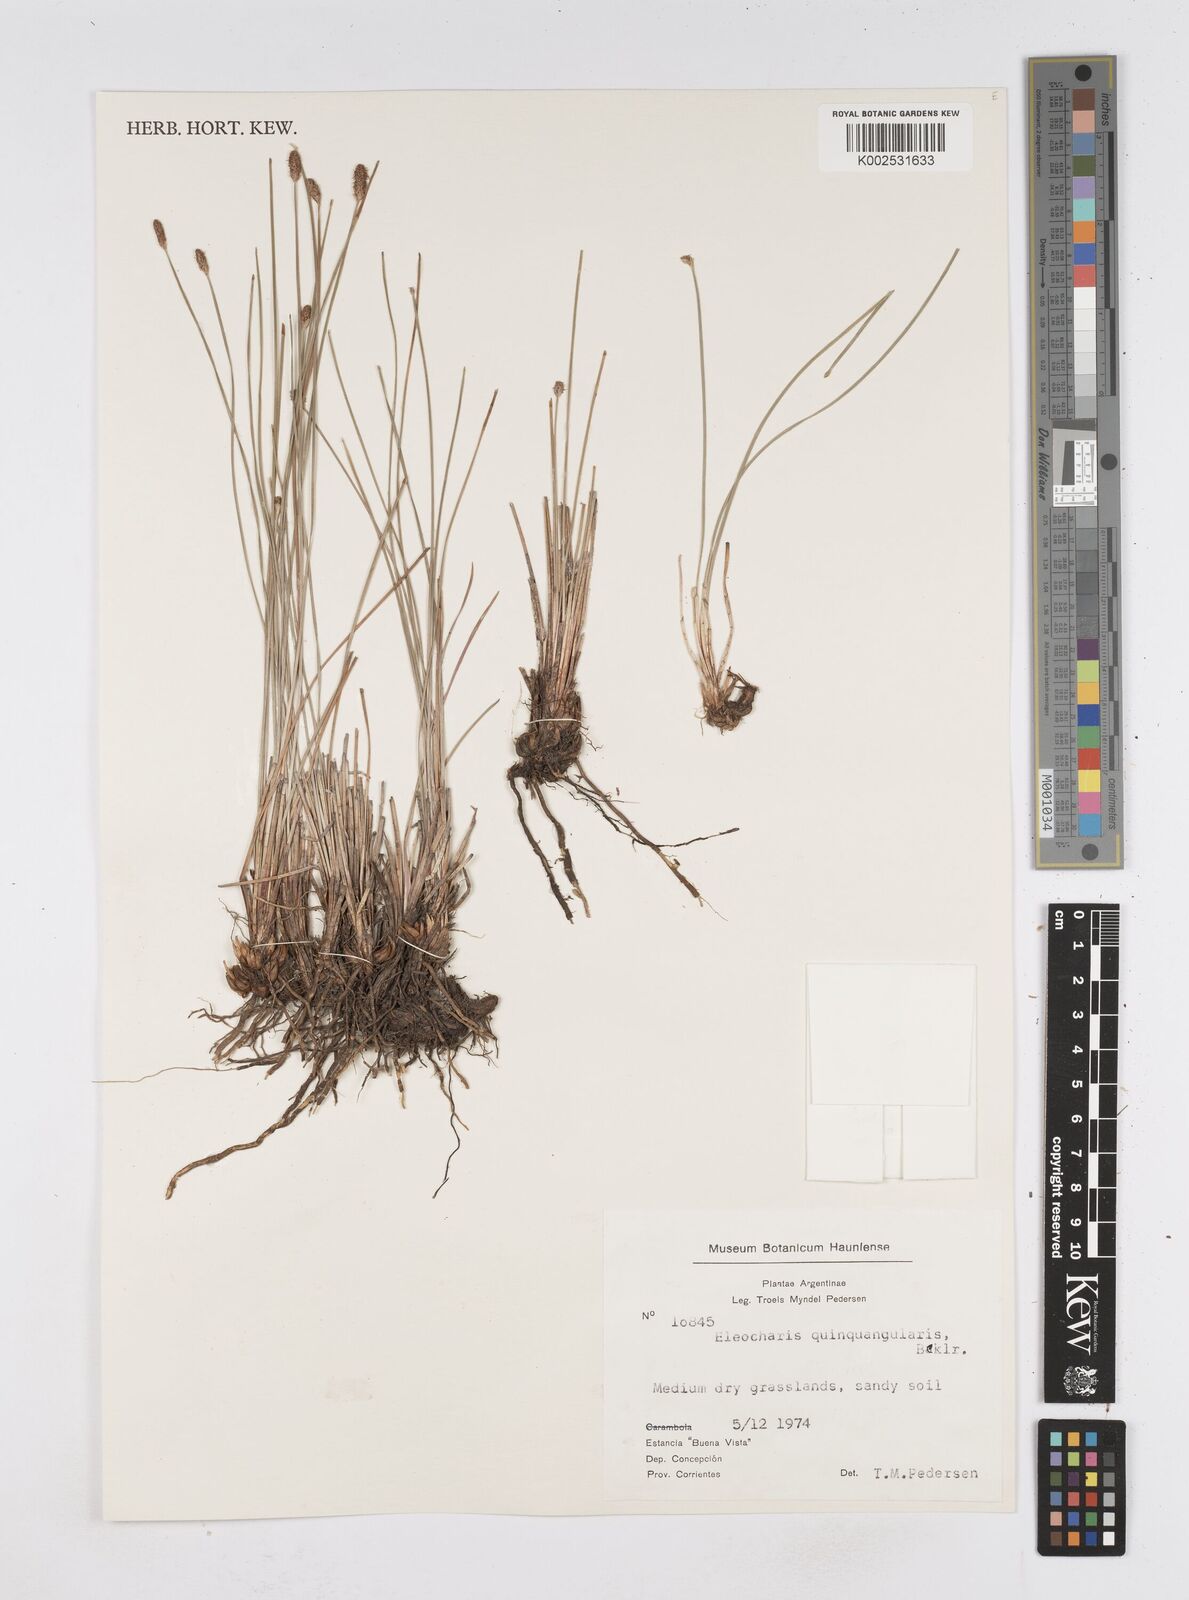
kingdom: Plantae
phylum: Tracheophyta
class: Liliopsida
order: Poales
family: Cyperaceae
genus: Eleocharis
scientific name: Eleocharis emarginata
